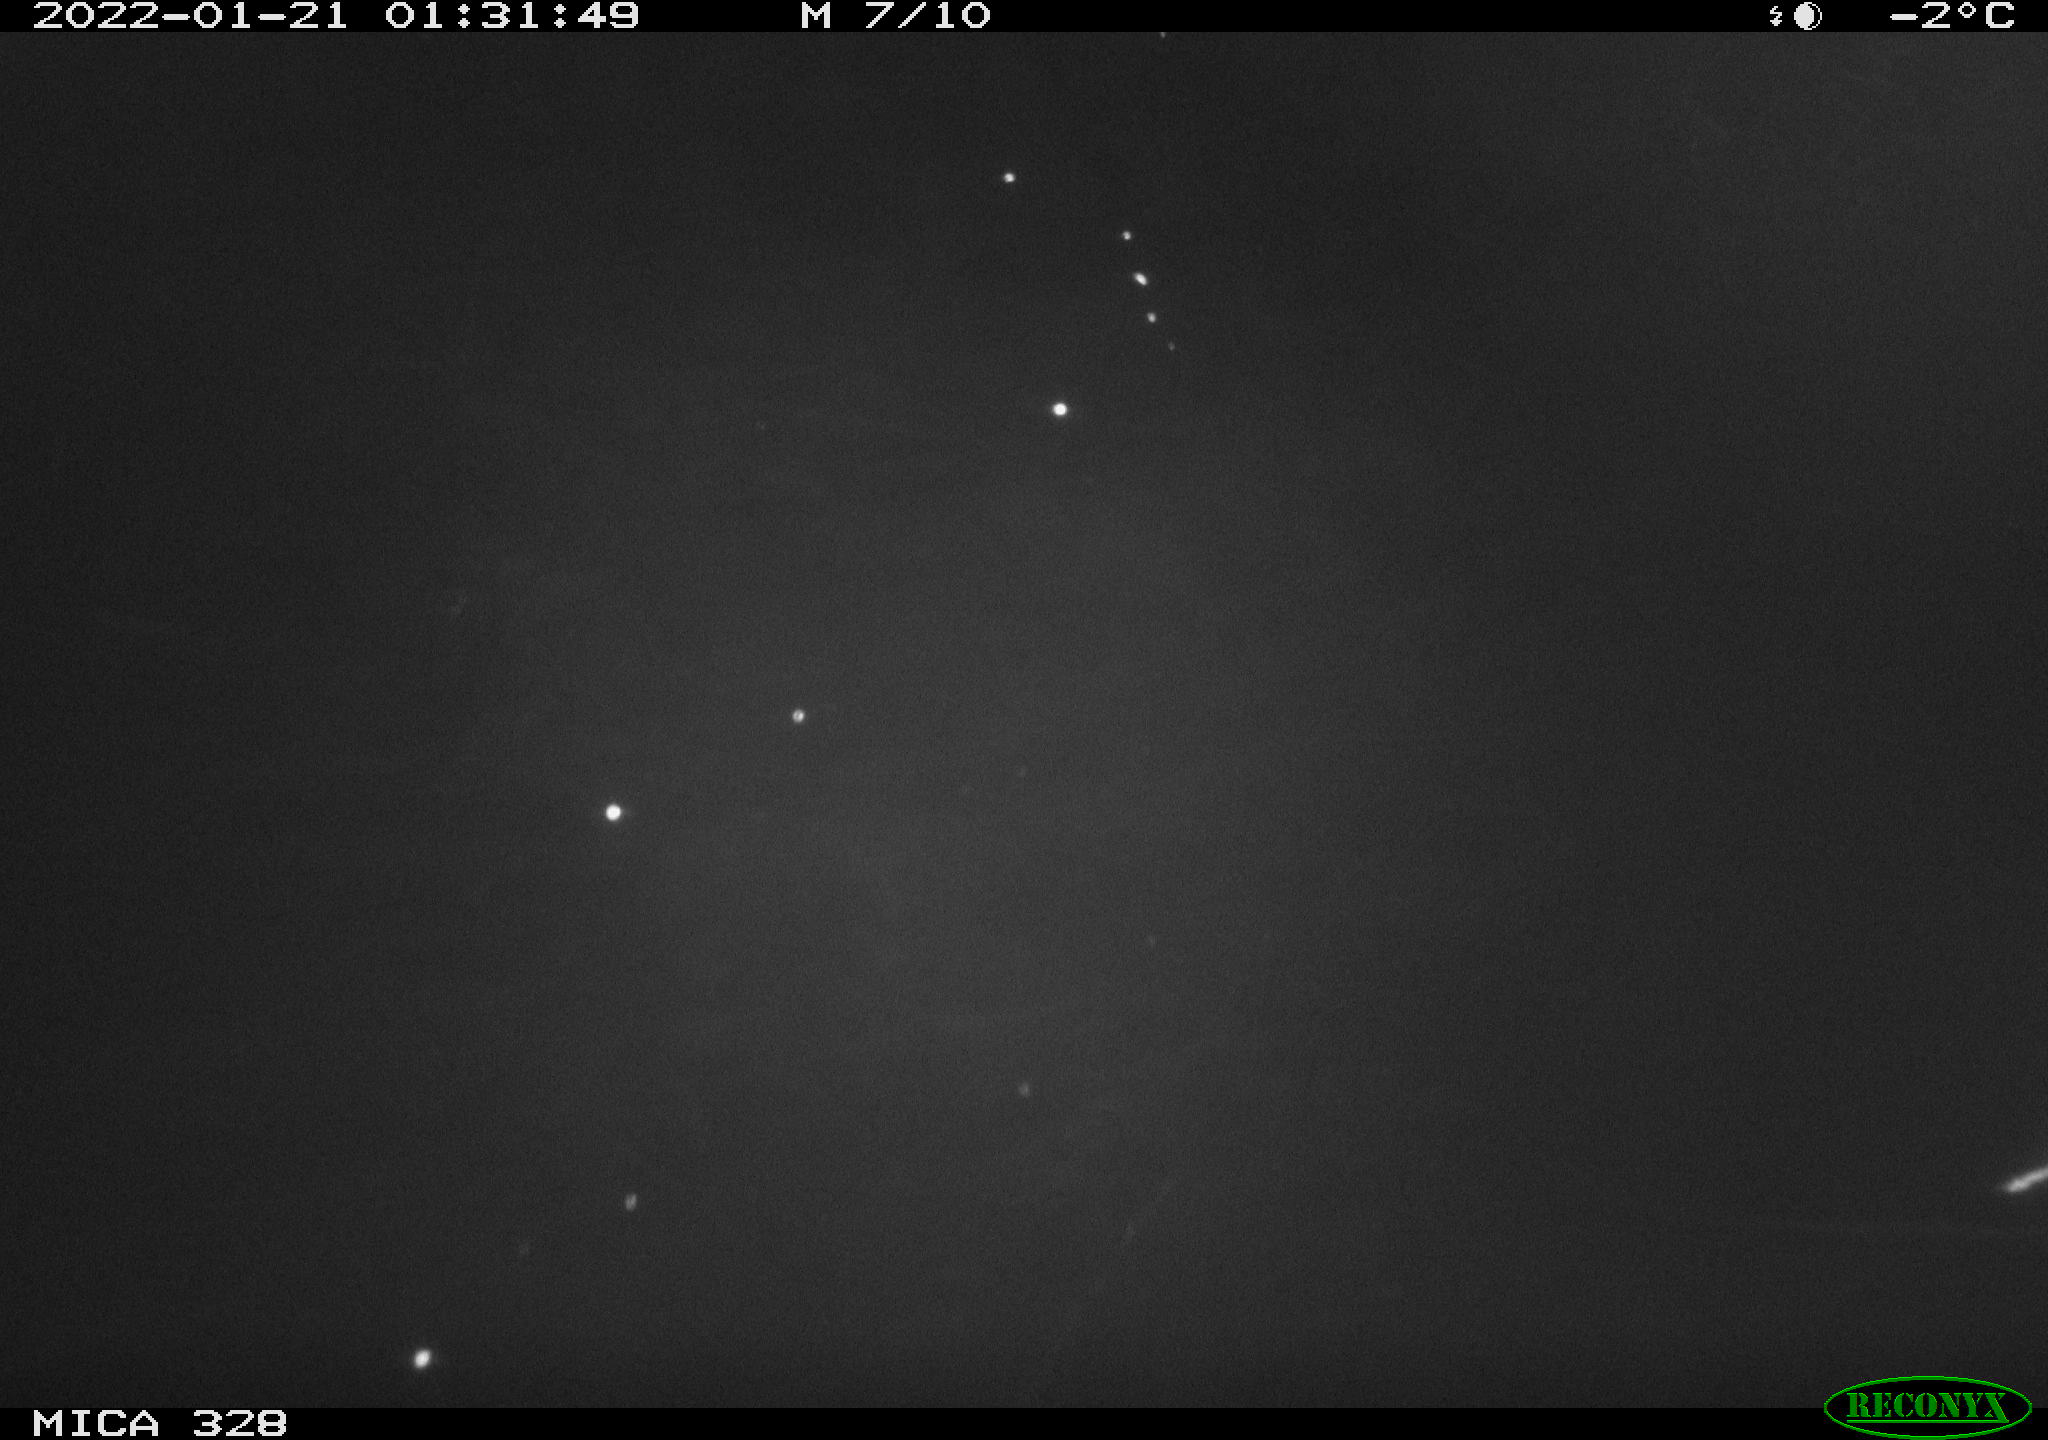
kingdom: Animalia
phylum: Chordata
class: Mammalia
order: Rodentia
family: Cricetidae
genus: Ondatra
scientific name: Ondatra zibethicus
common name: Muskrat
